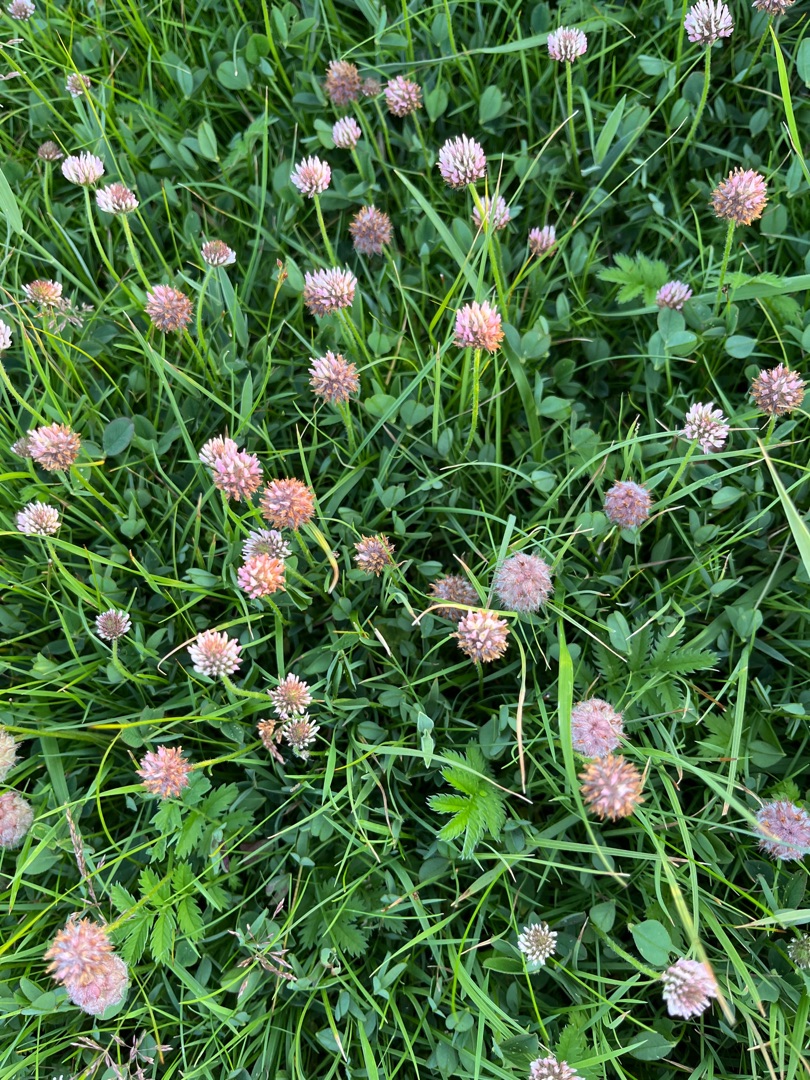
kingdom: Plantae
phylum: Tracheophyta
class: Magnoliopsida
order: Fabales
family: Fabaceae
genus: Trifolium
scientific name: Trifolium fragiferum
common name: Jordbær-kløver
